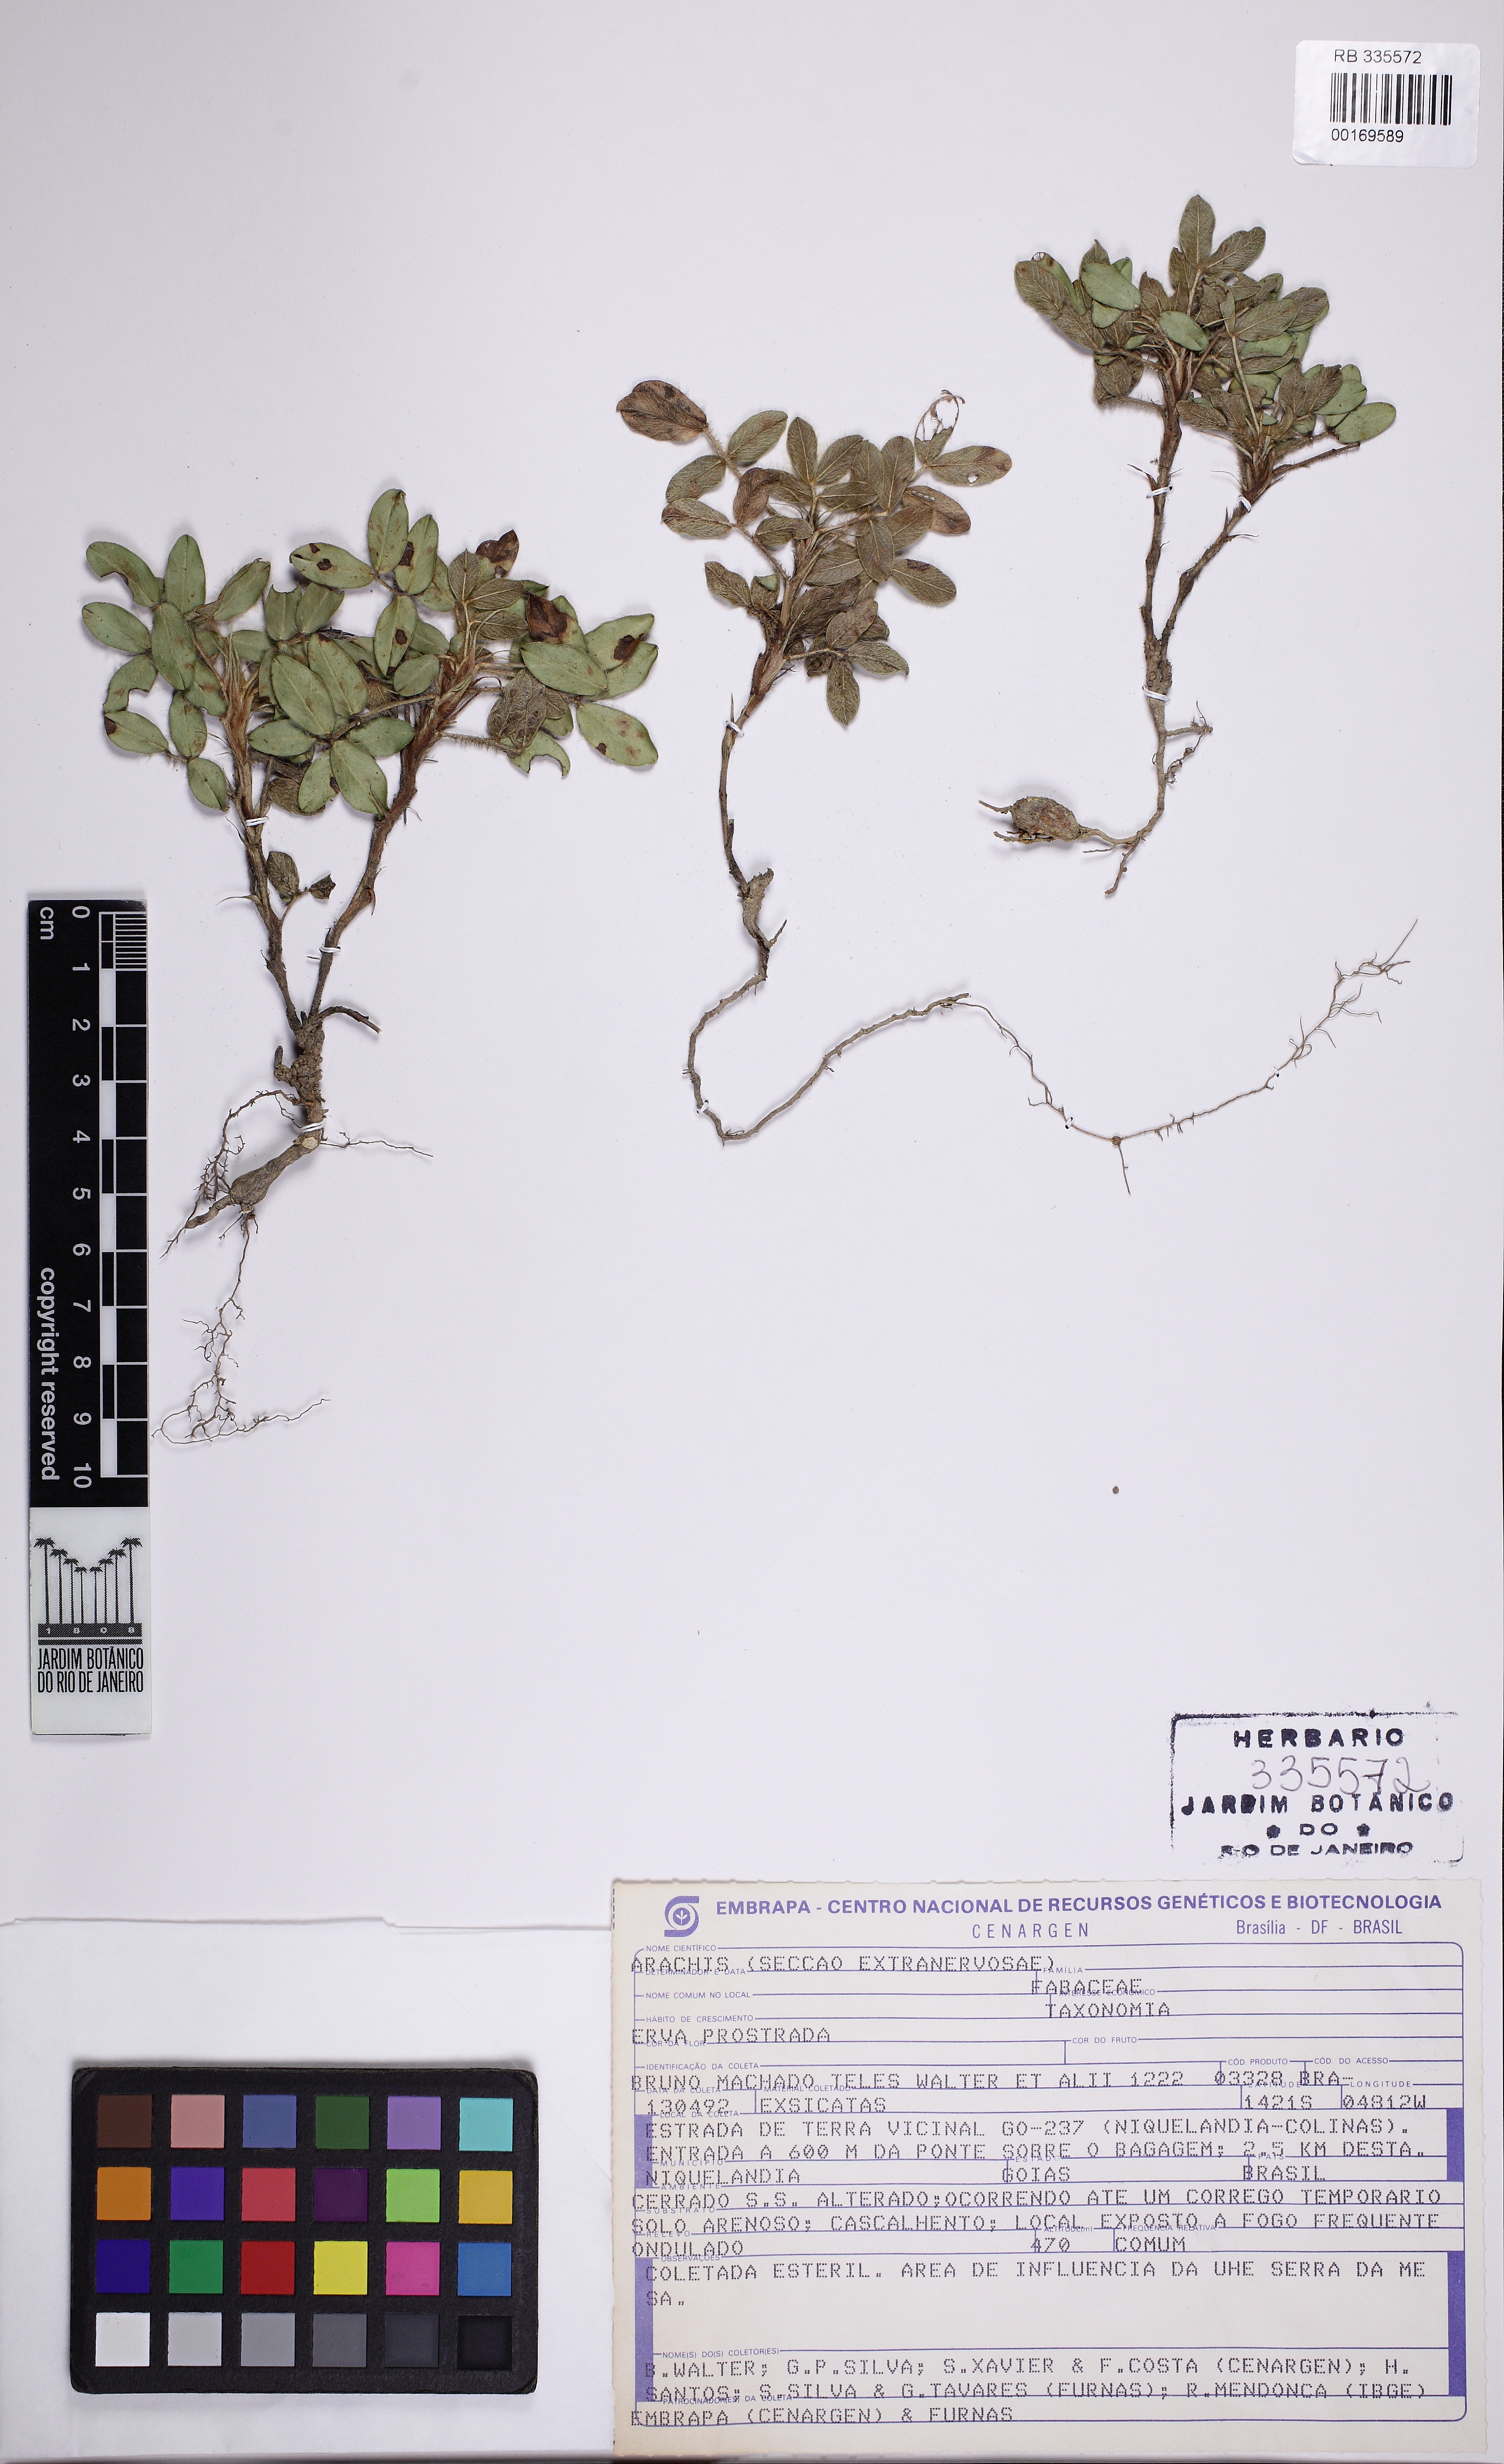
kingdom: Plantae
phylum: Tracheophyta
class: Magnoliopsida
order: Fabales
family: Fabaceae
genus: Arachis
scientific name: Arachis
